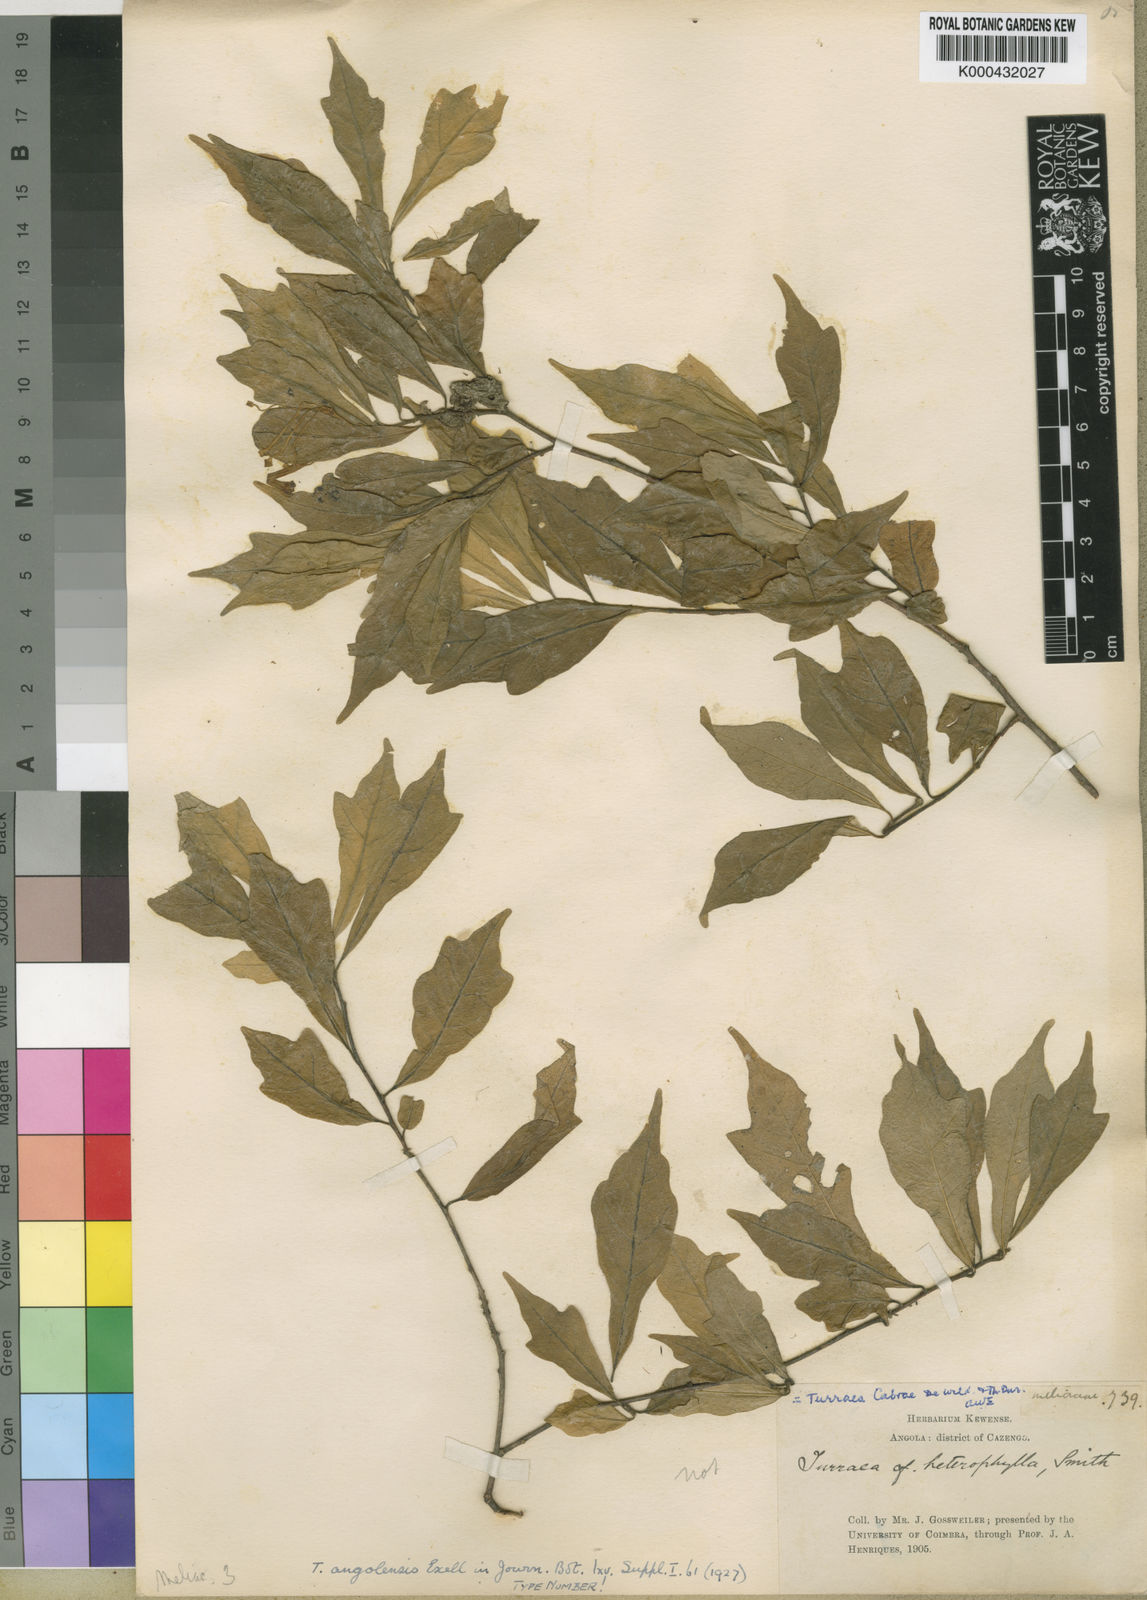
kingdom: Plantae
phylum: Tracheophyta
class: Magnoliopsida
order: Sapindales
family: Meliaceae
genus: Turraea
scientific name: Turraea cabrae
